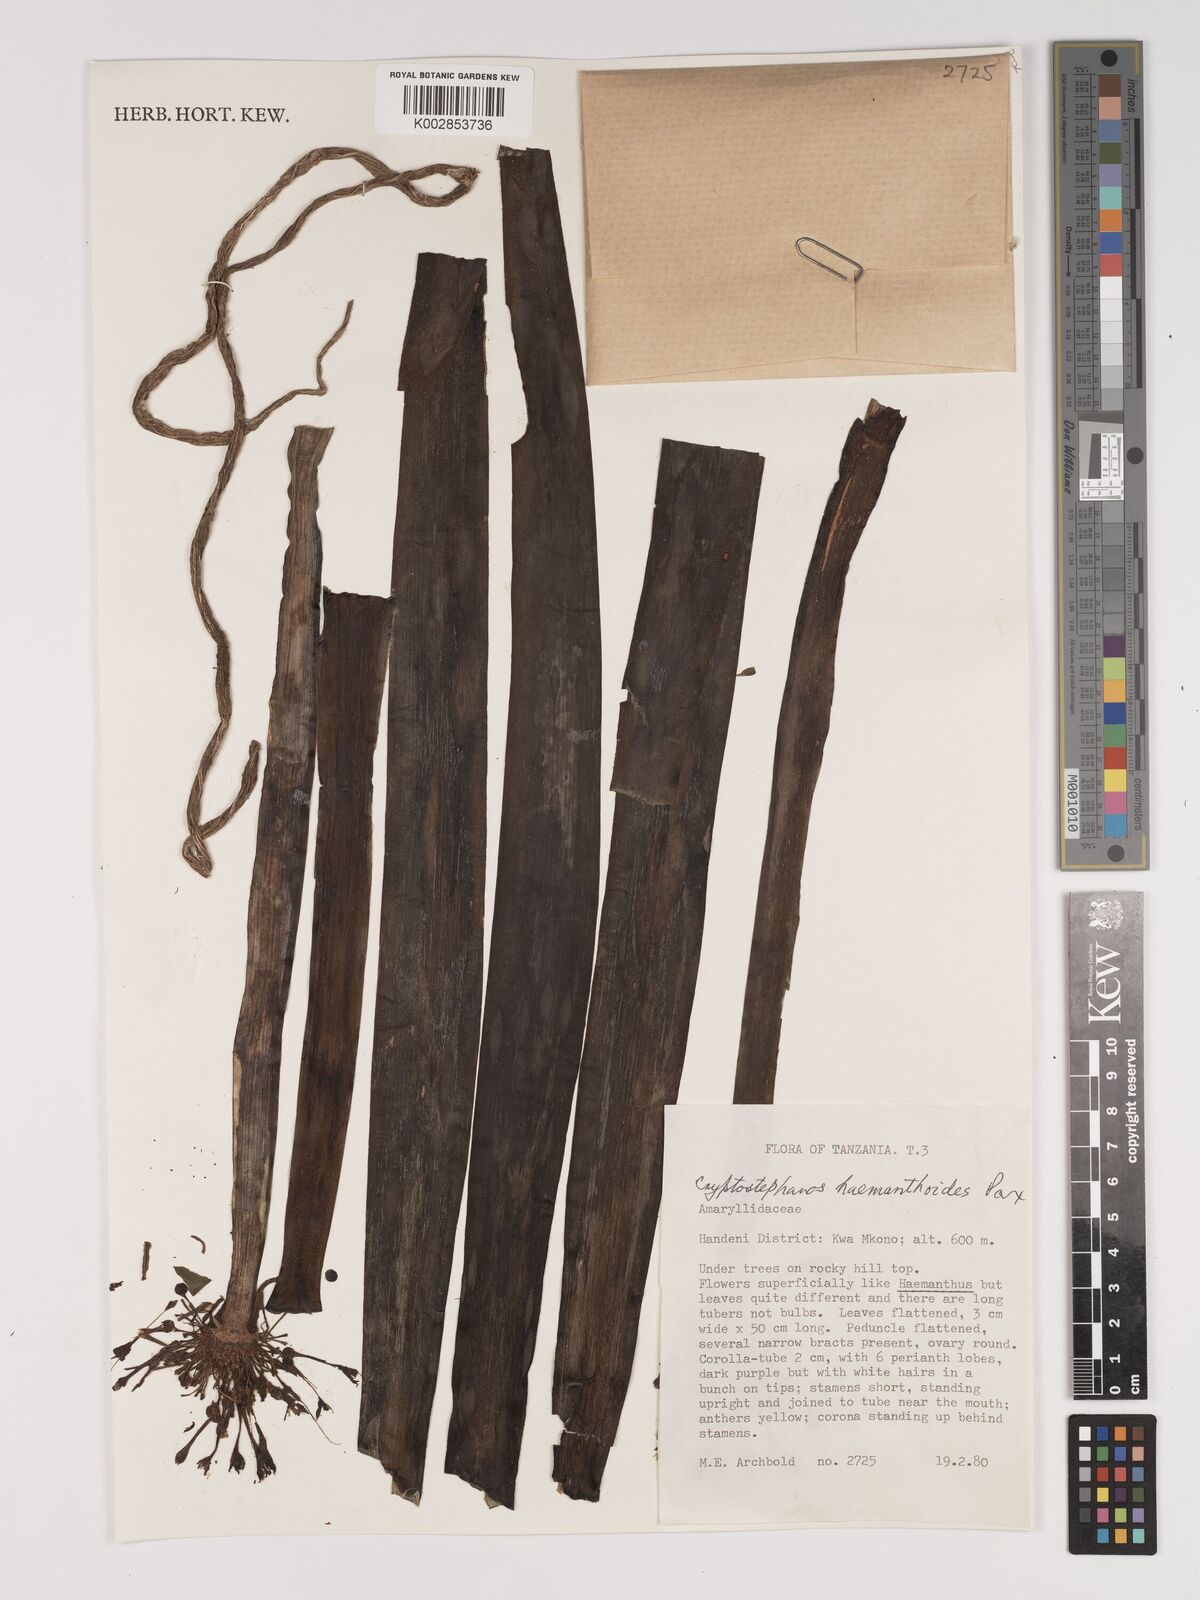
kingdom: Plantae
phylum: Tracheophyta
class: Liliopsida
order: Asparagales
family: Amaryllidaceae
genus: Cryptostephanus
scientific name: Cryptostephanus haemanthoides
